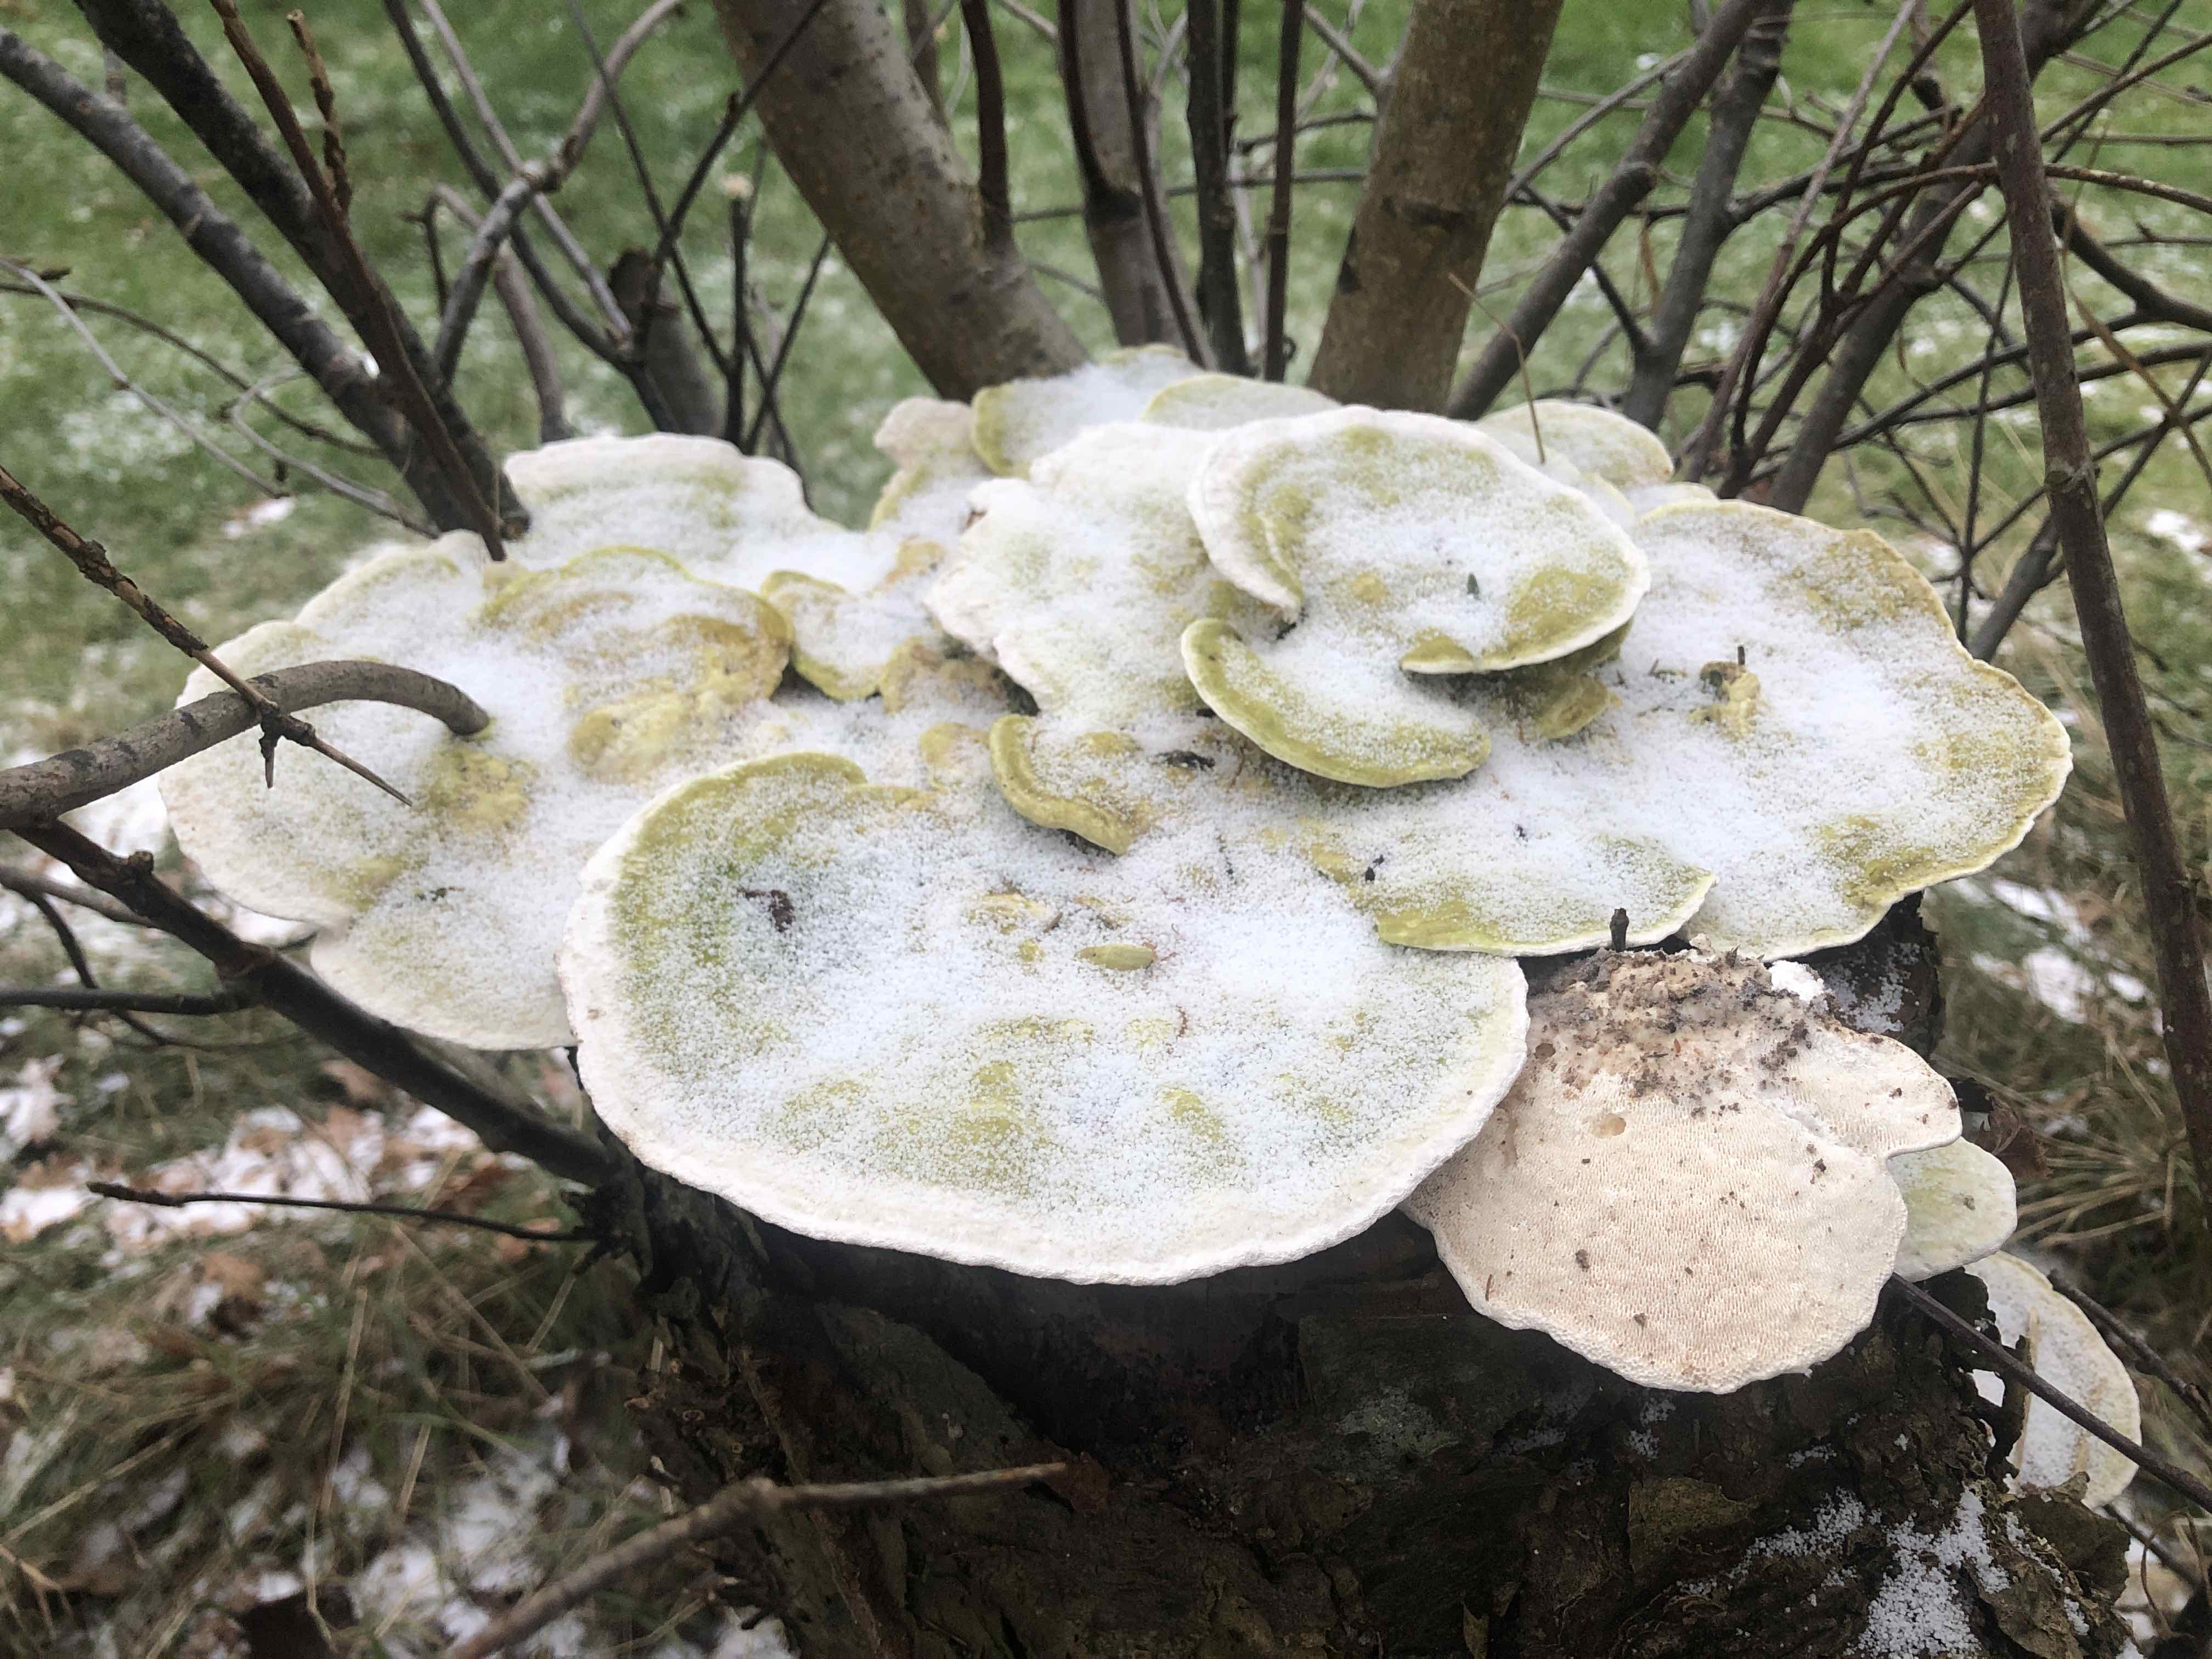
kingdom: Fungi
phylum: Basidiomycota
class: Agaricomycetes
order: Polyporales
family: Polyporaceae
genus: Trametes
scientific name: Trametes gibbosa
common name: puklet læderporesvamp
